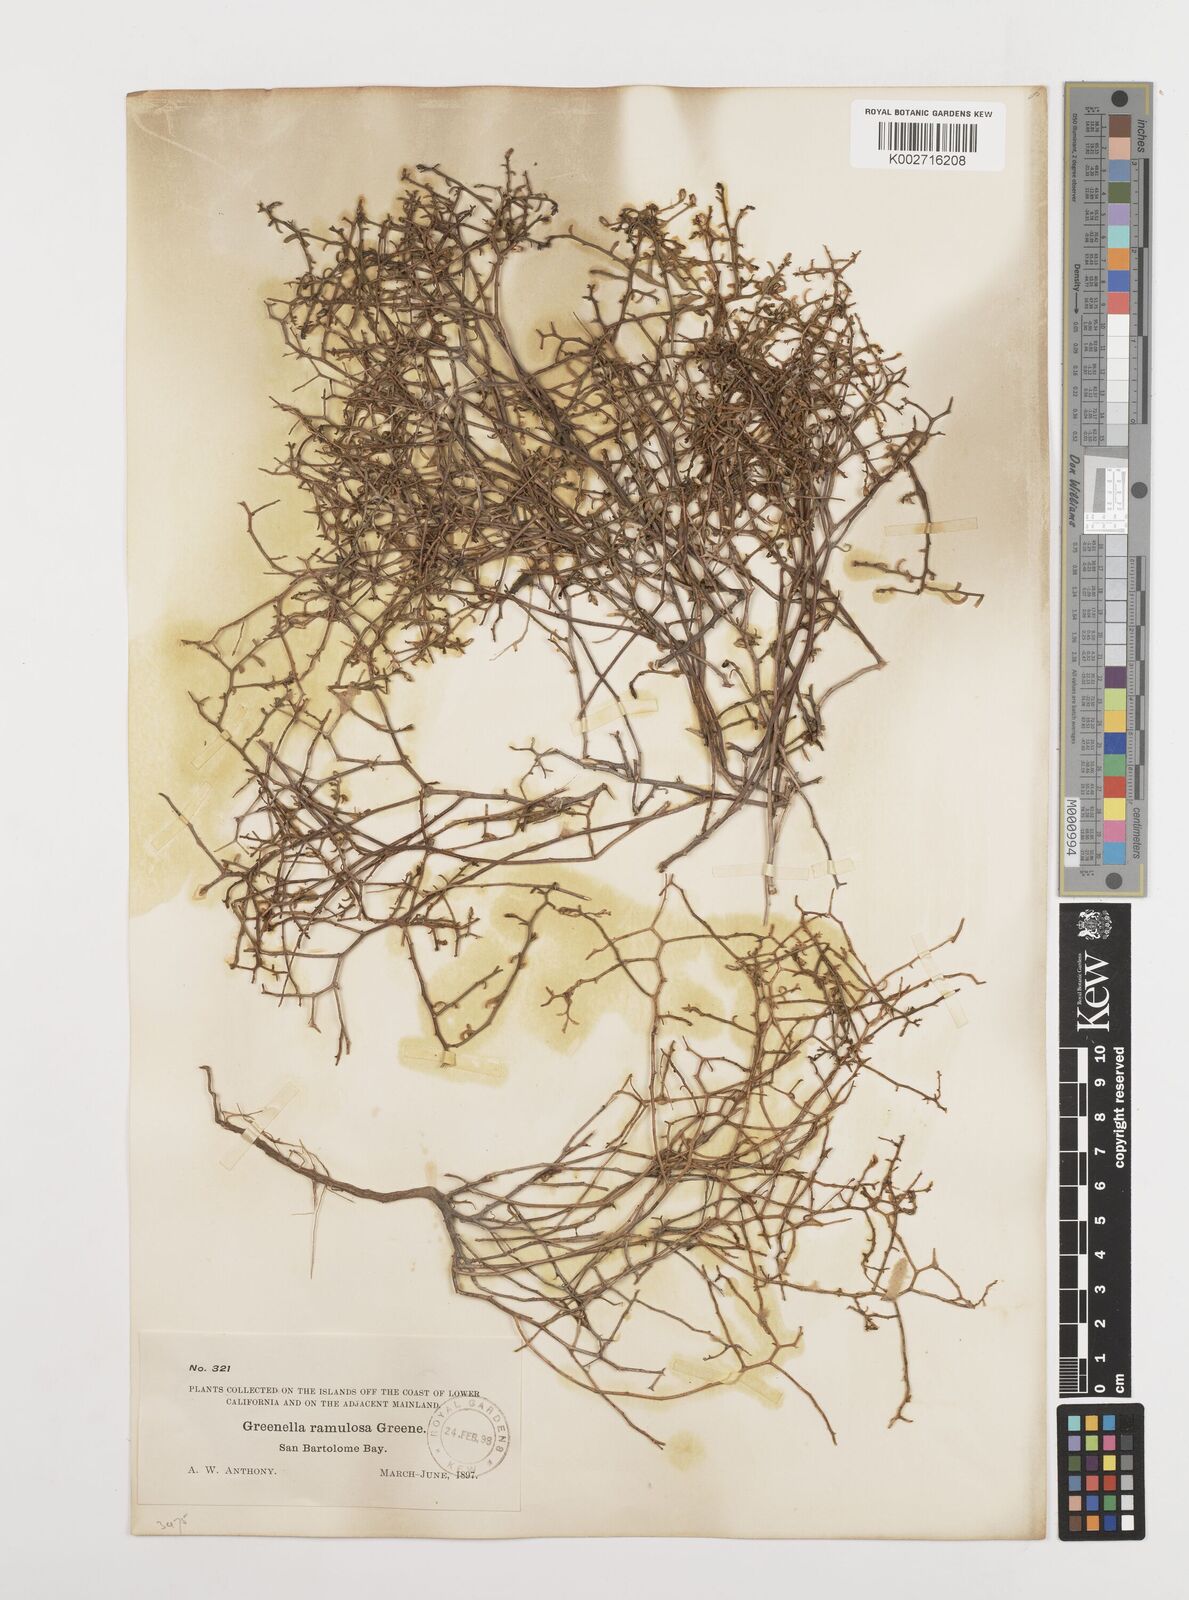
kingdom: Plantae
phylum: Tracheophyta
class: Magnoliopsida
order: Asterales
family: Asteraceae
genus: Gutierrezia
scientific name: Gutierrezia ramulosa
